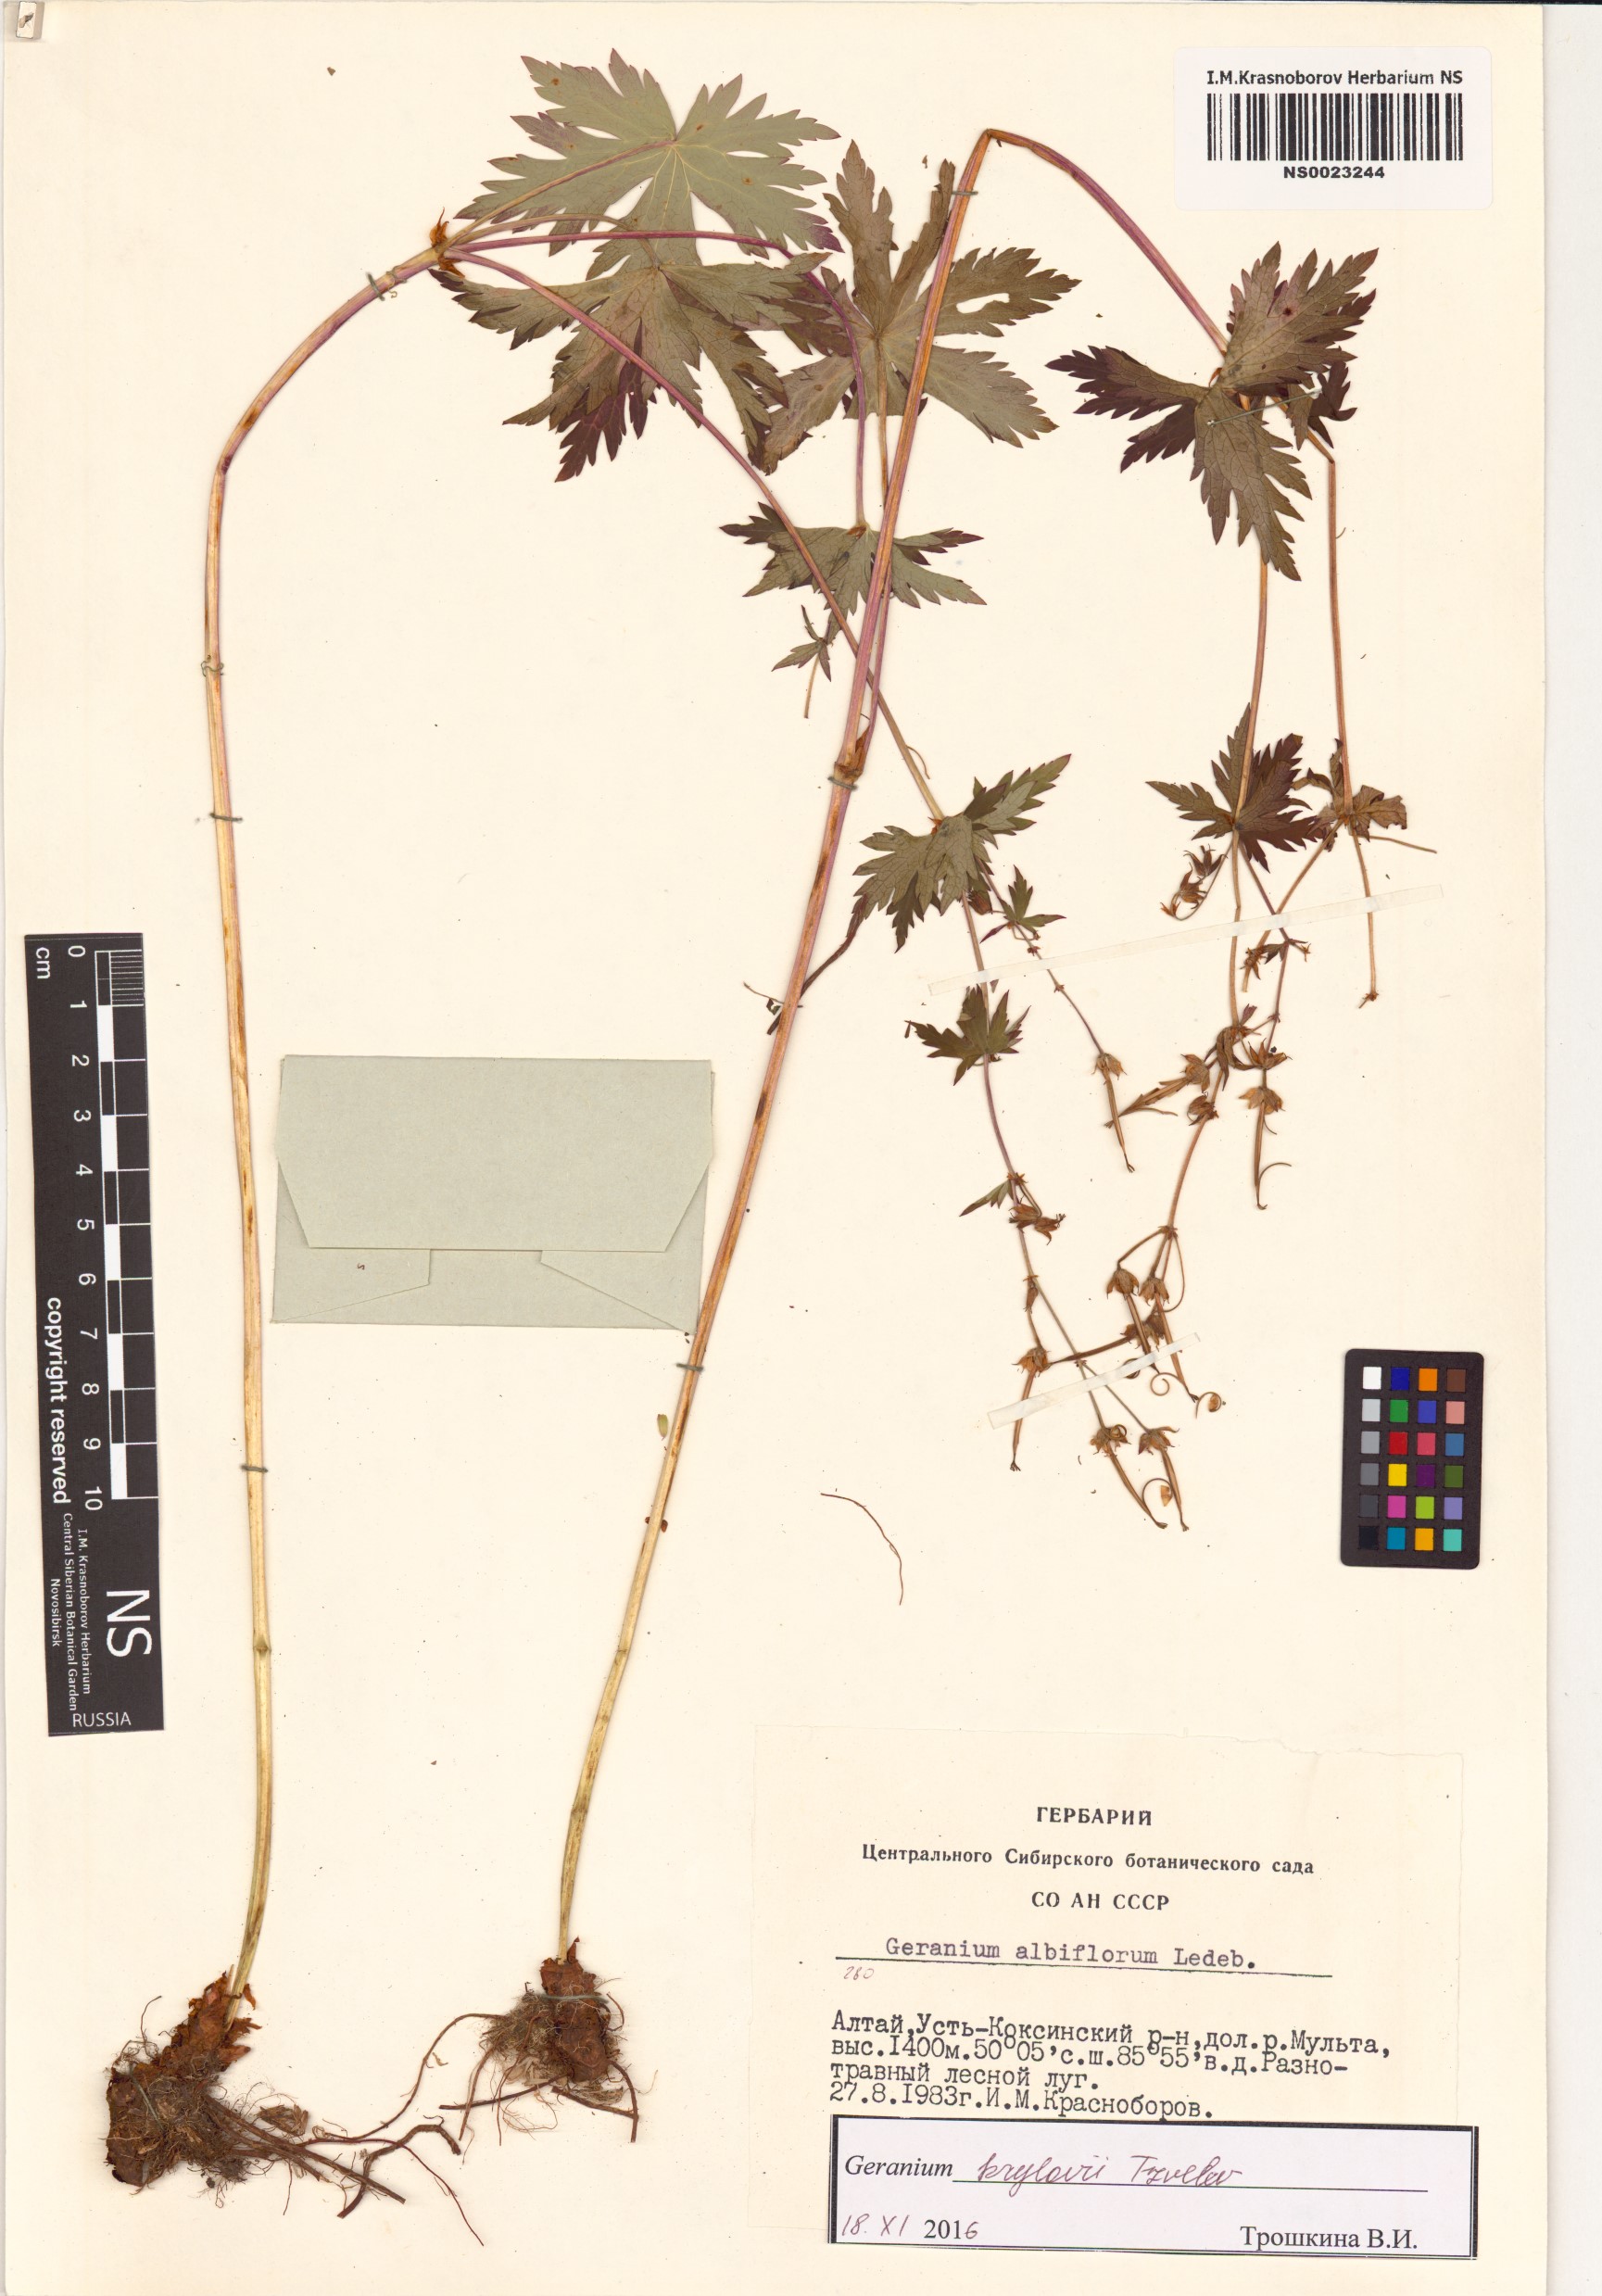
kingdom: Plantae
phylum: Tracheophyta
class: Magnoliopsida
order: Geraniales
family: Geraniaceae
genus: Geranium
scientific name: Geranium sylvaticum
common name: Wood crane's-bill
